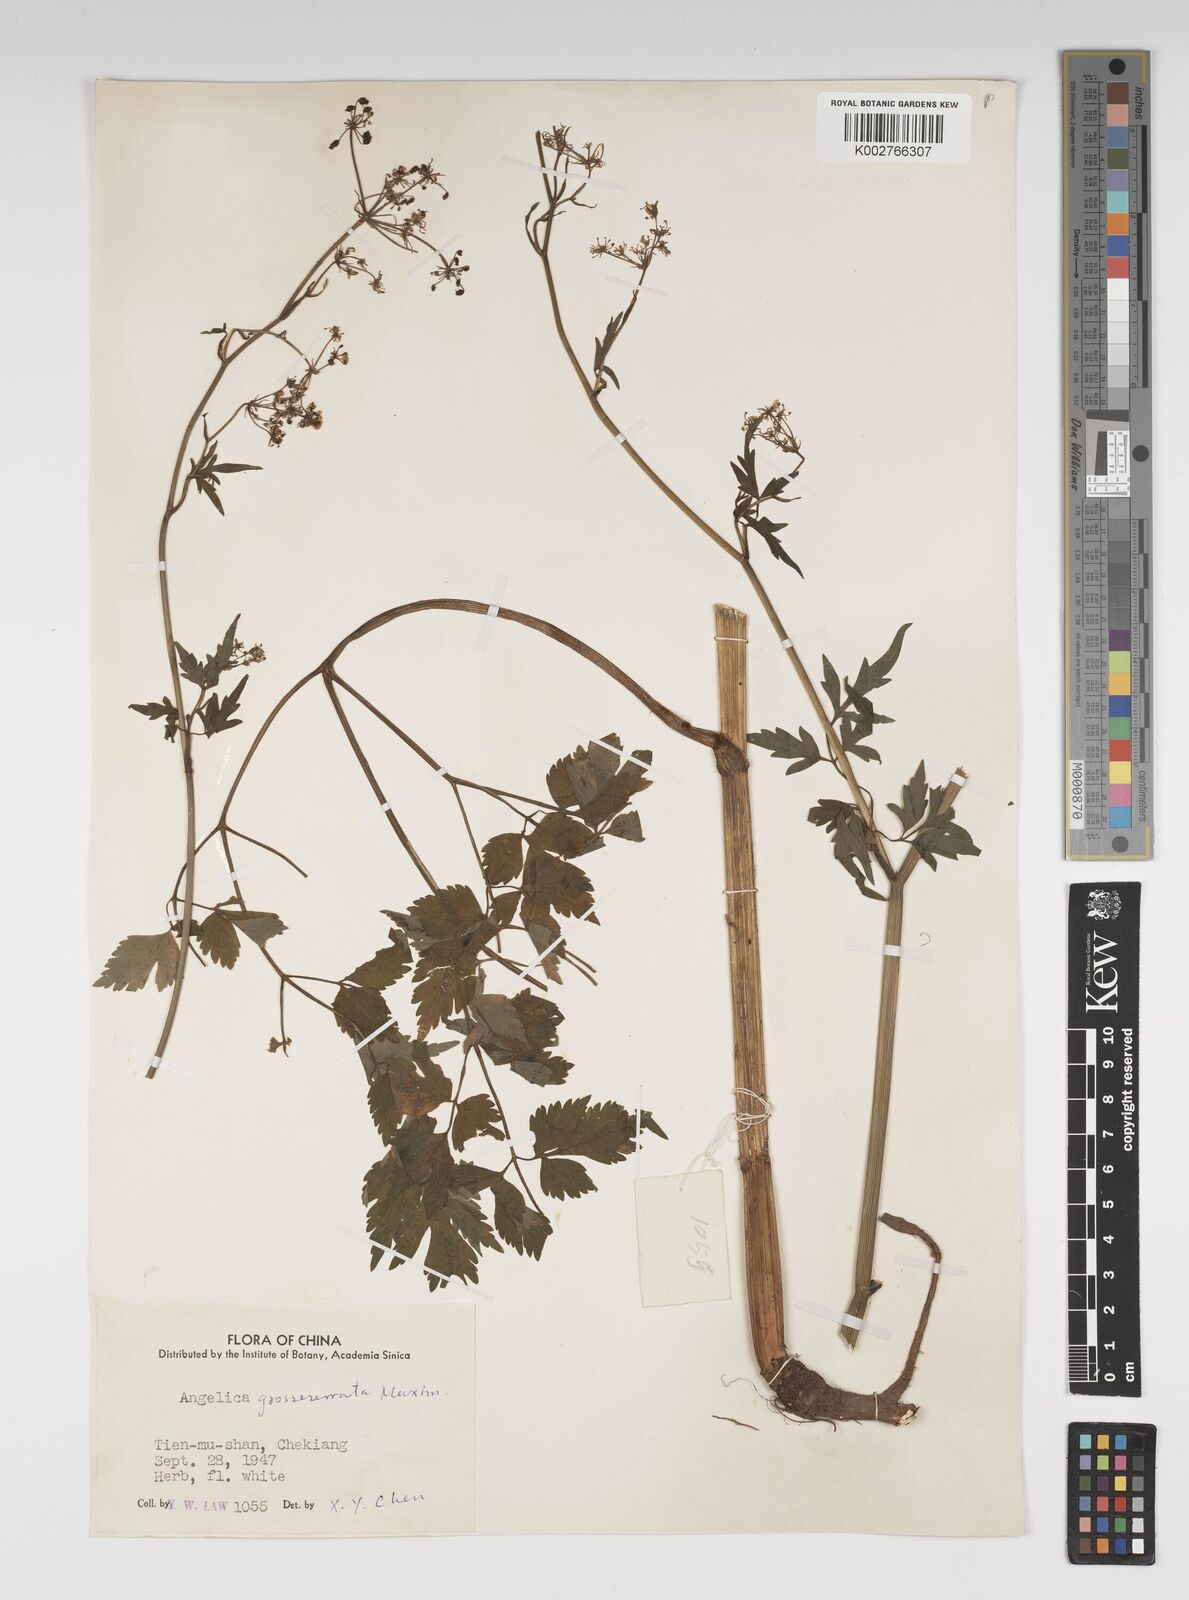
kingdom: Plantae
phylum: Tracheophyta
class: Magnoliopsida
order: Apiales
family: Apiaceae
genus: Ostericum
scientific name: Ostericum grosseserratum
